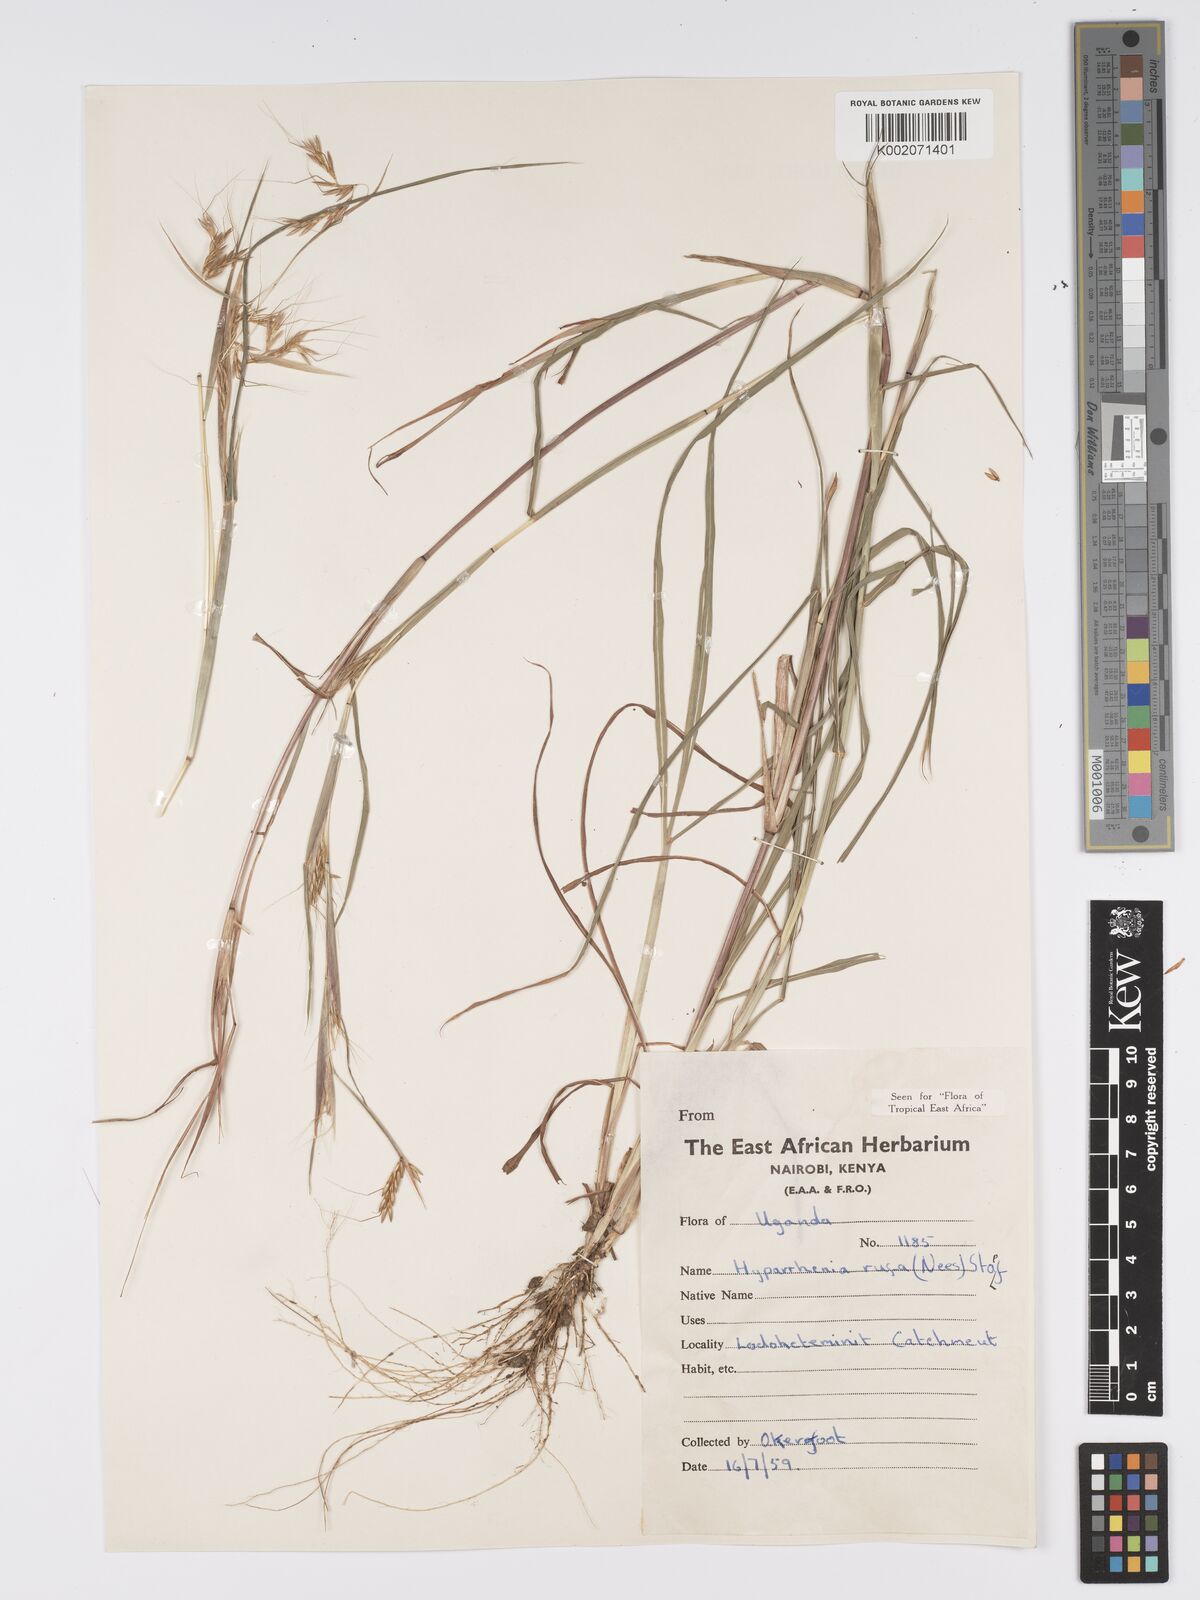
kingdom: Plantae
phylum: Tracheophyta
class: Liliopsida
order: Poales
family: Poaceae
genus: Hyparrhenia
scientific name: Hyparrhenia rufa
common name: Jaraguagrass
